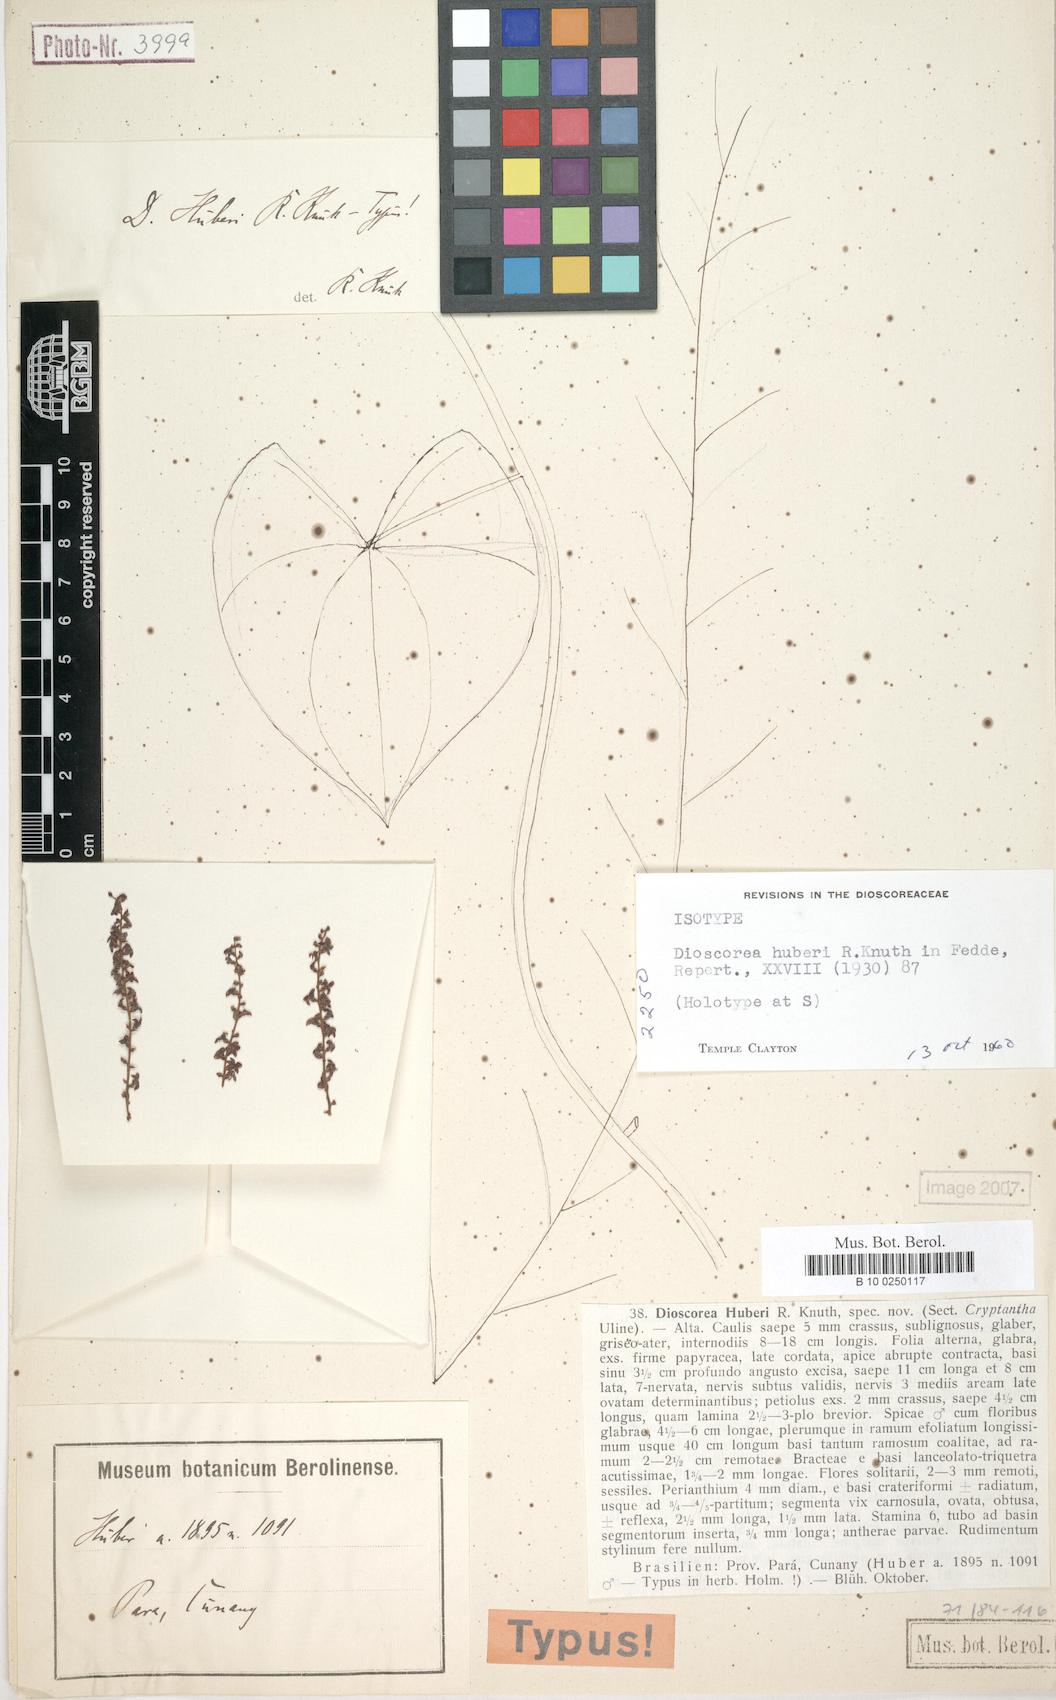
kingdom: Plantae
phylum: Tracheophyta
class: Liliopsida
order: Dioscoreales
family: Dioscoreaceae
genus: Dioscorea
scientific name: Dioscorea amazonum
